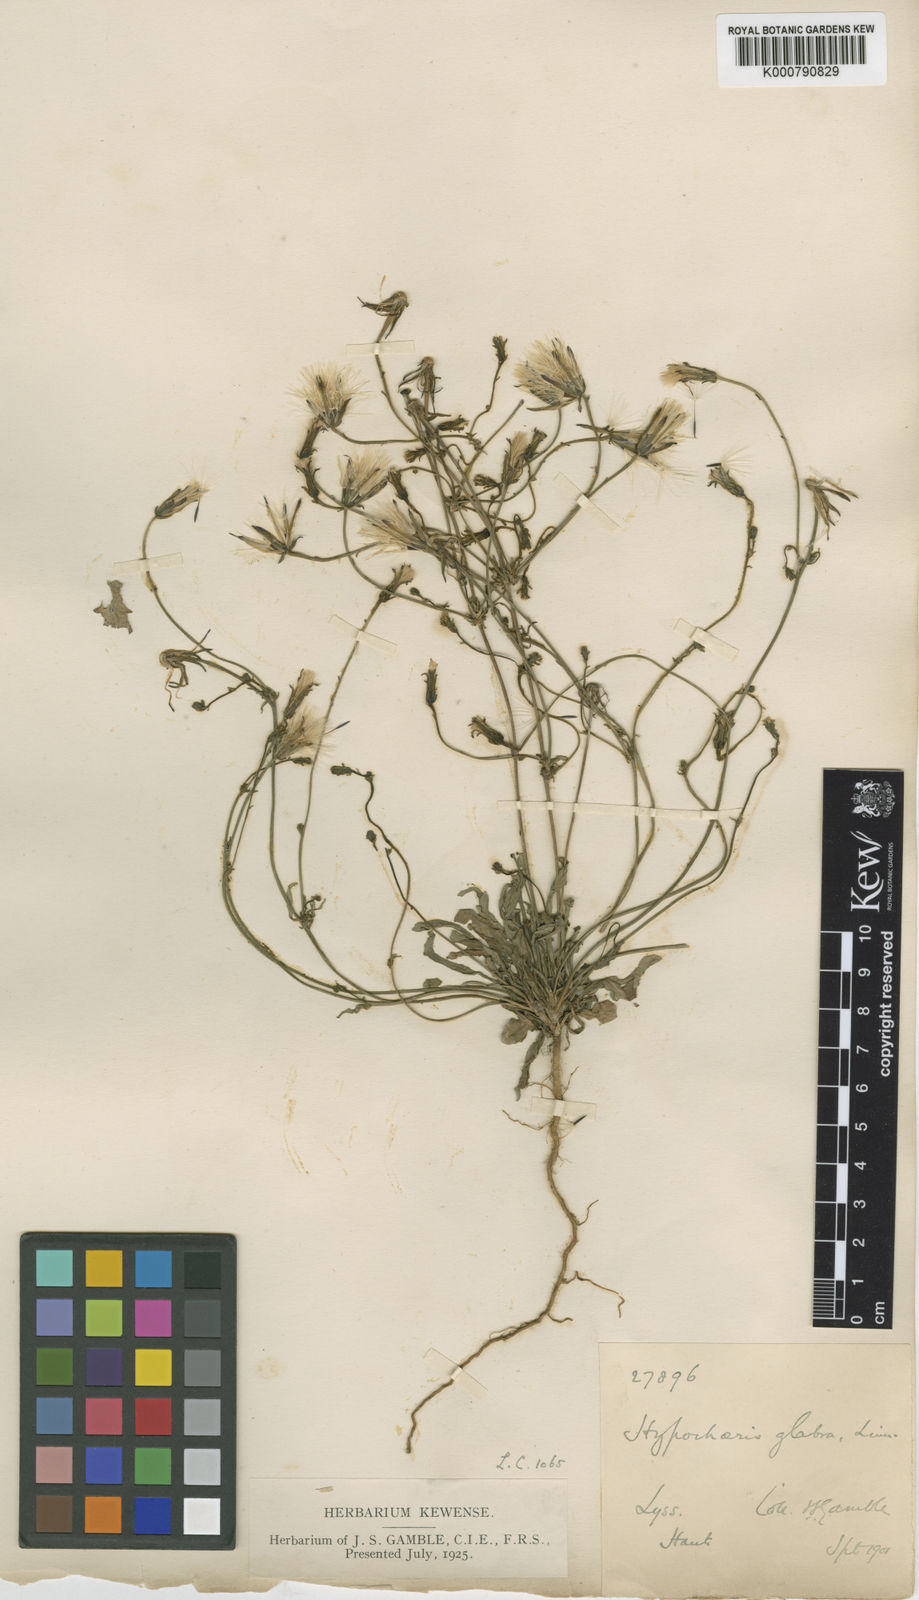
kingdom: Plantae
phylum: Tracheophyta
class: Magnoliopsida
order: Asterales
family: Asteraceae
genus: Hypochaeris
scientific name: Hypochaeris glabra
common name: Smooth catsear
